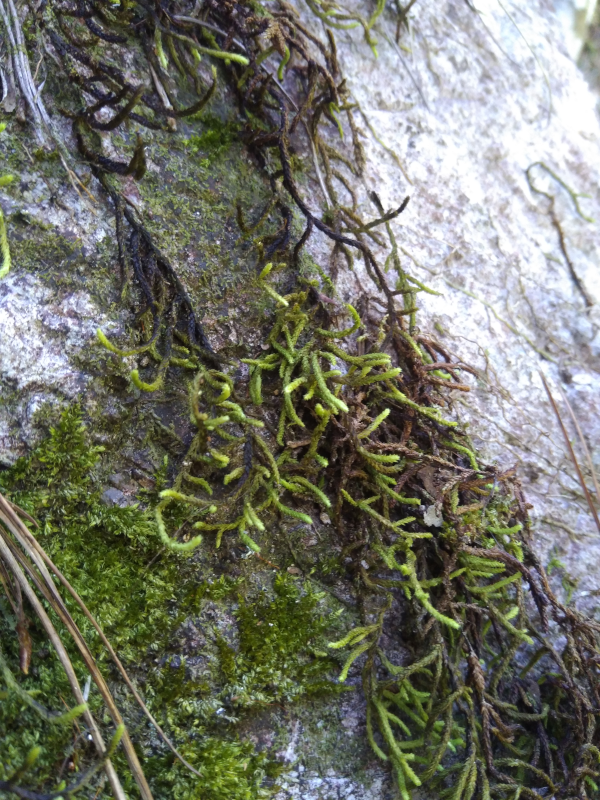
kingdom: Plantae
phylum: Bryophyta
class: Bryopsida
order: Hypnales
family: Meteoriaceae
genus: Cryptopapillaria
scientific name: Cryptopapillaria helictophylla
